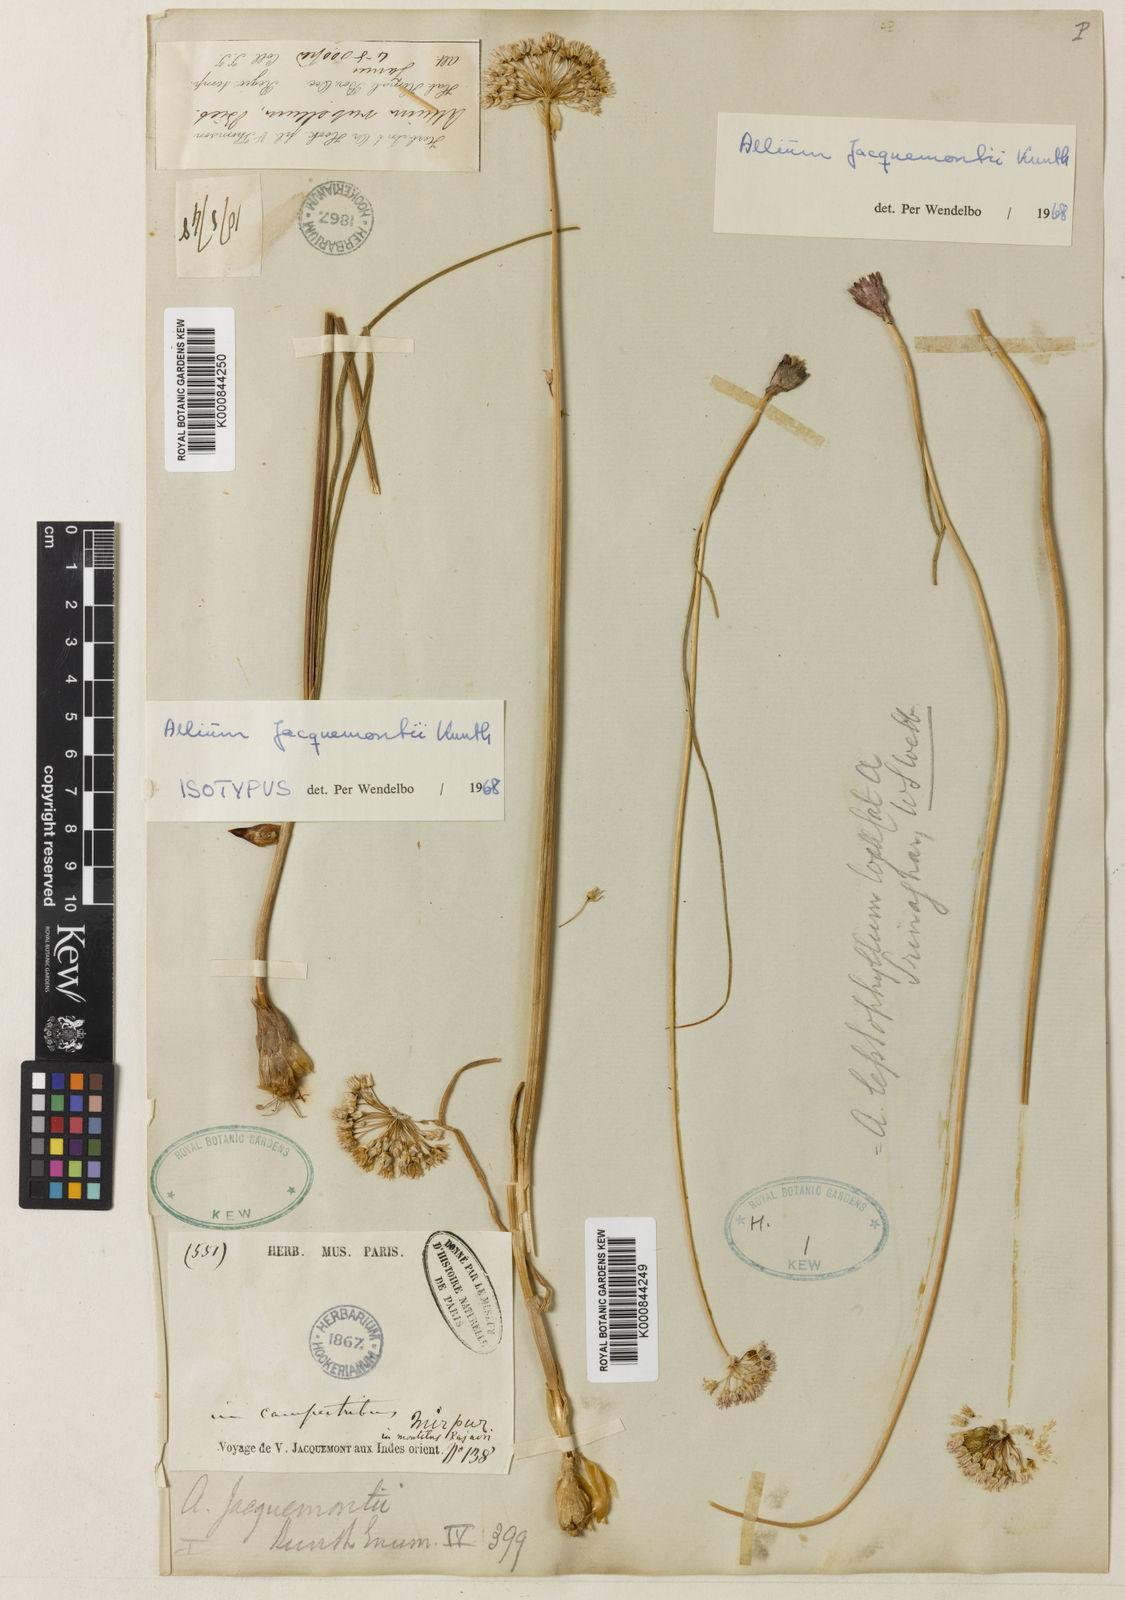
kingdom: Plantae
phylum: Tracheophyta
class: Liliopsida
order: Asparagales
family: Amaryllidaceae
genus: Allium
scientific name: Allium
